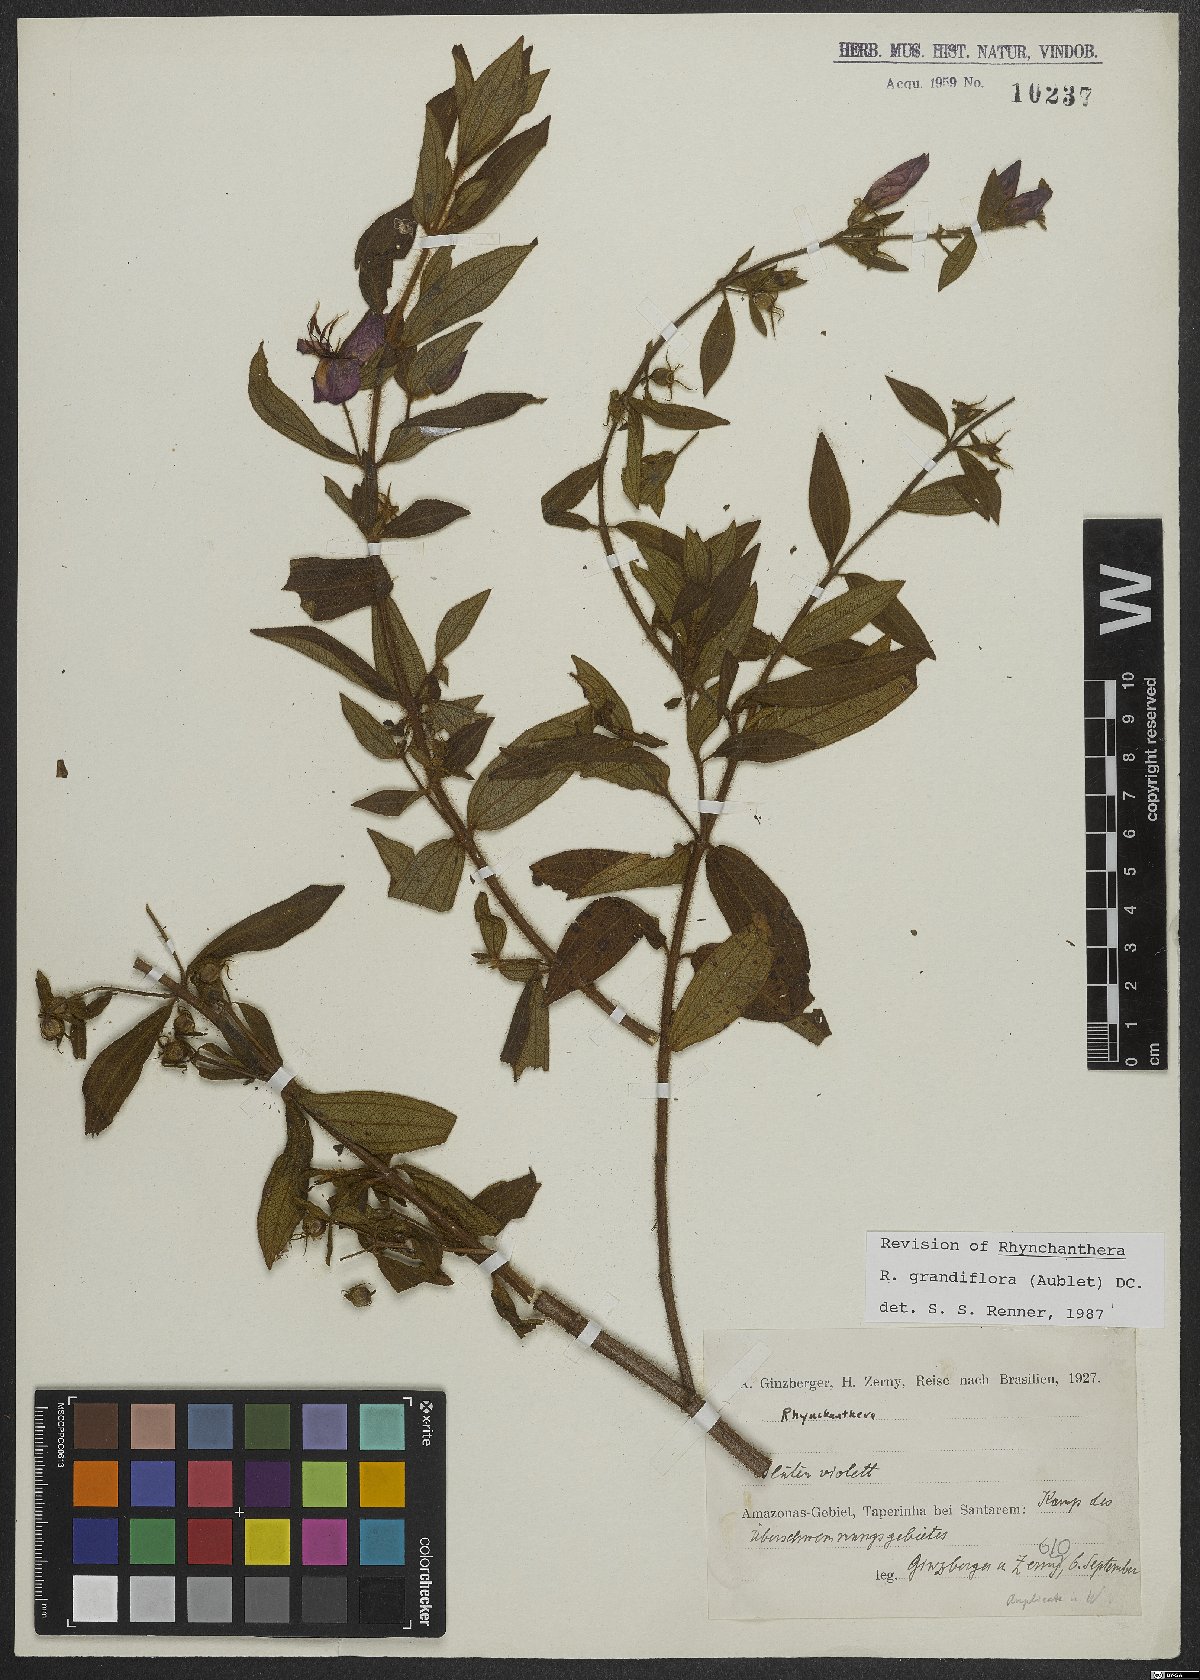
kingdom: Plantae
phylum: Tracheophyta
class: Magnoliopsida
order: Myrtales
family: Melastomataceae
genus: Rhynchanthera
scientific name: Rhynchanthera grandiflora
